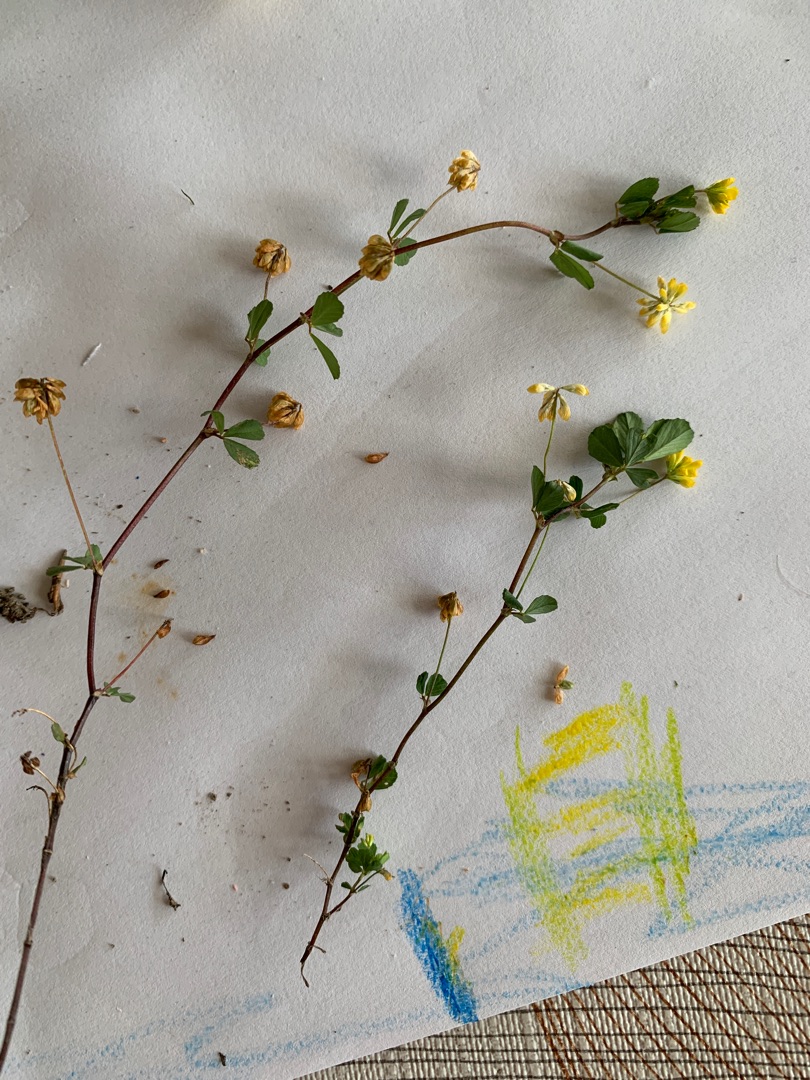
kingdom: Plantae
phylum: Tracheophyta
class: Magnoliopsida
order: Fabales
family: Fabaceae
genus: Trifolium
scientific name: Trifolium dubium
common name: Fin kløver
